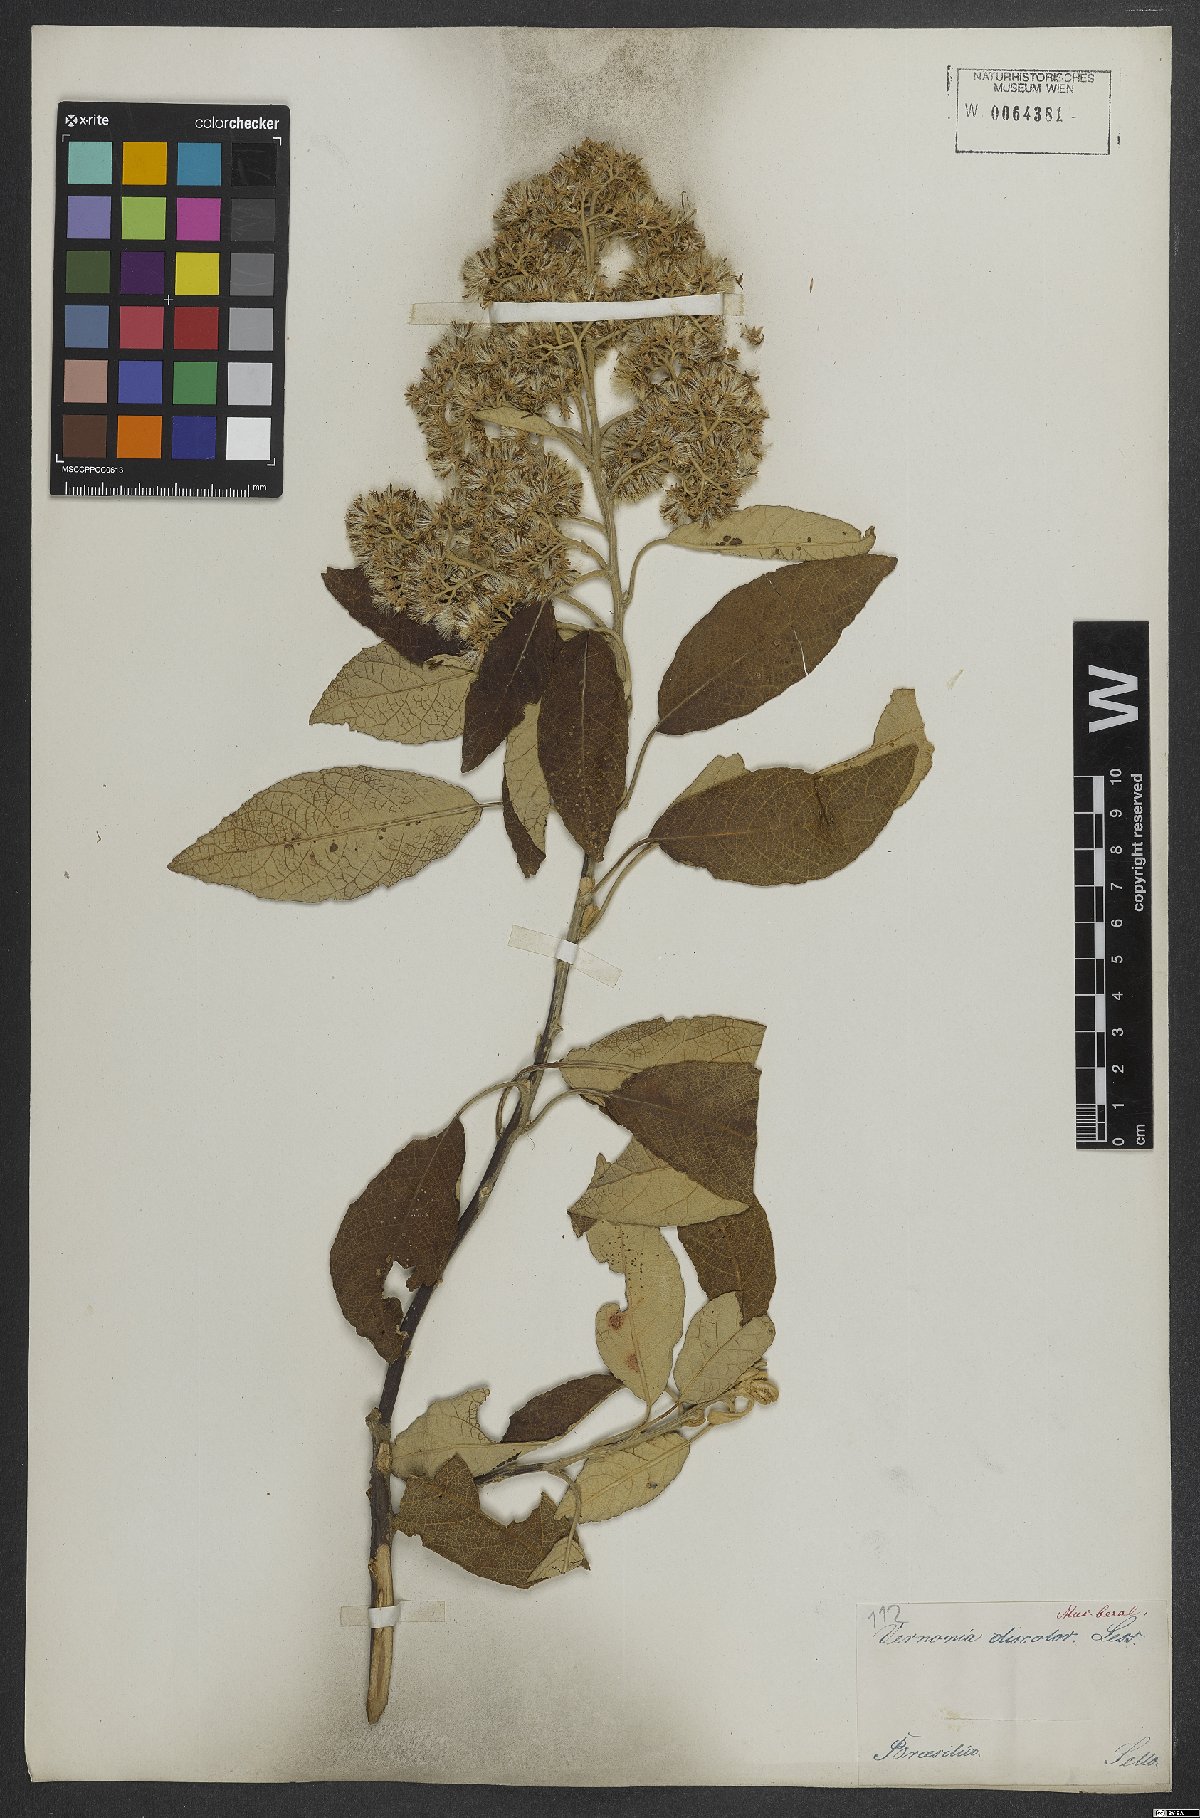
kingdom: Plantae
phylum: Tracheophyta
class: Magnoliopsida
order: Asterales
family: Asteraceae
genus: Vernonanthura
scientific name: Vernonanthura discolor
